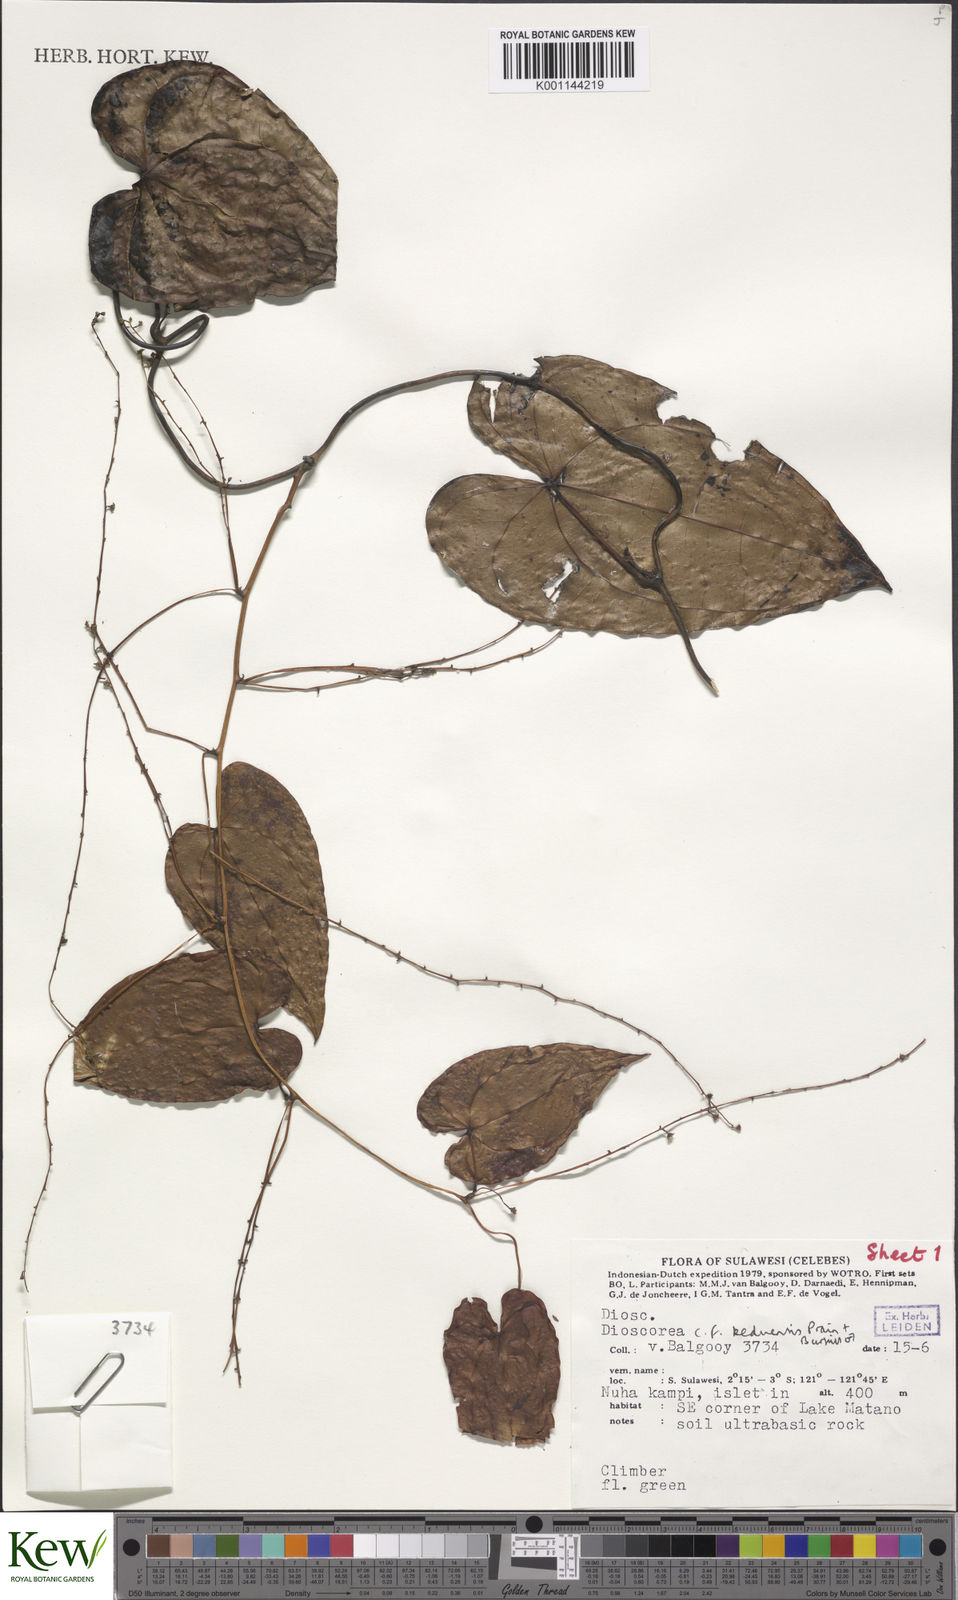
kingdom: Plantae
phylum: Tracheophyta
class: Liliopsida
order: Dioscoreales
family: Dioscoreaceae
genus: Dioscorea
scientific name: Dioscorea keduensis
